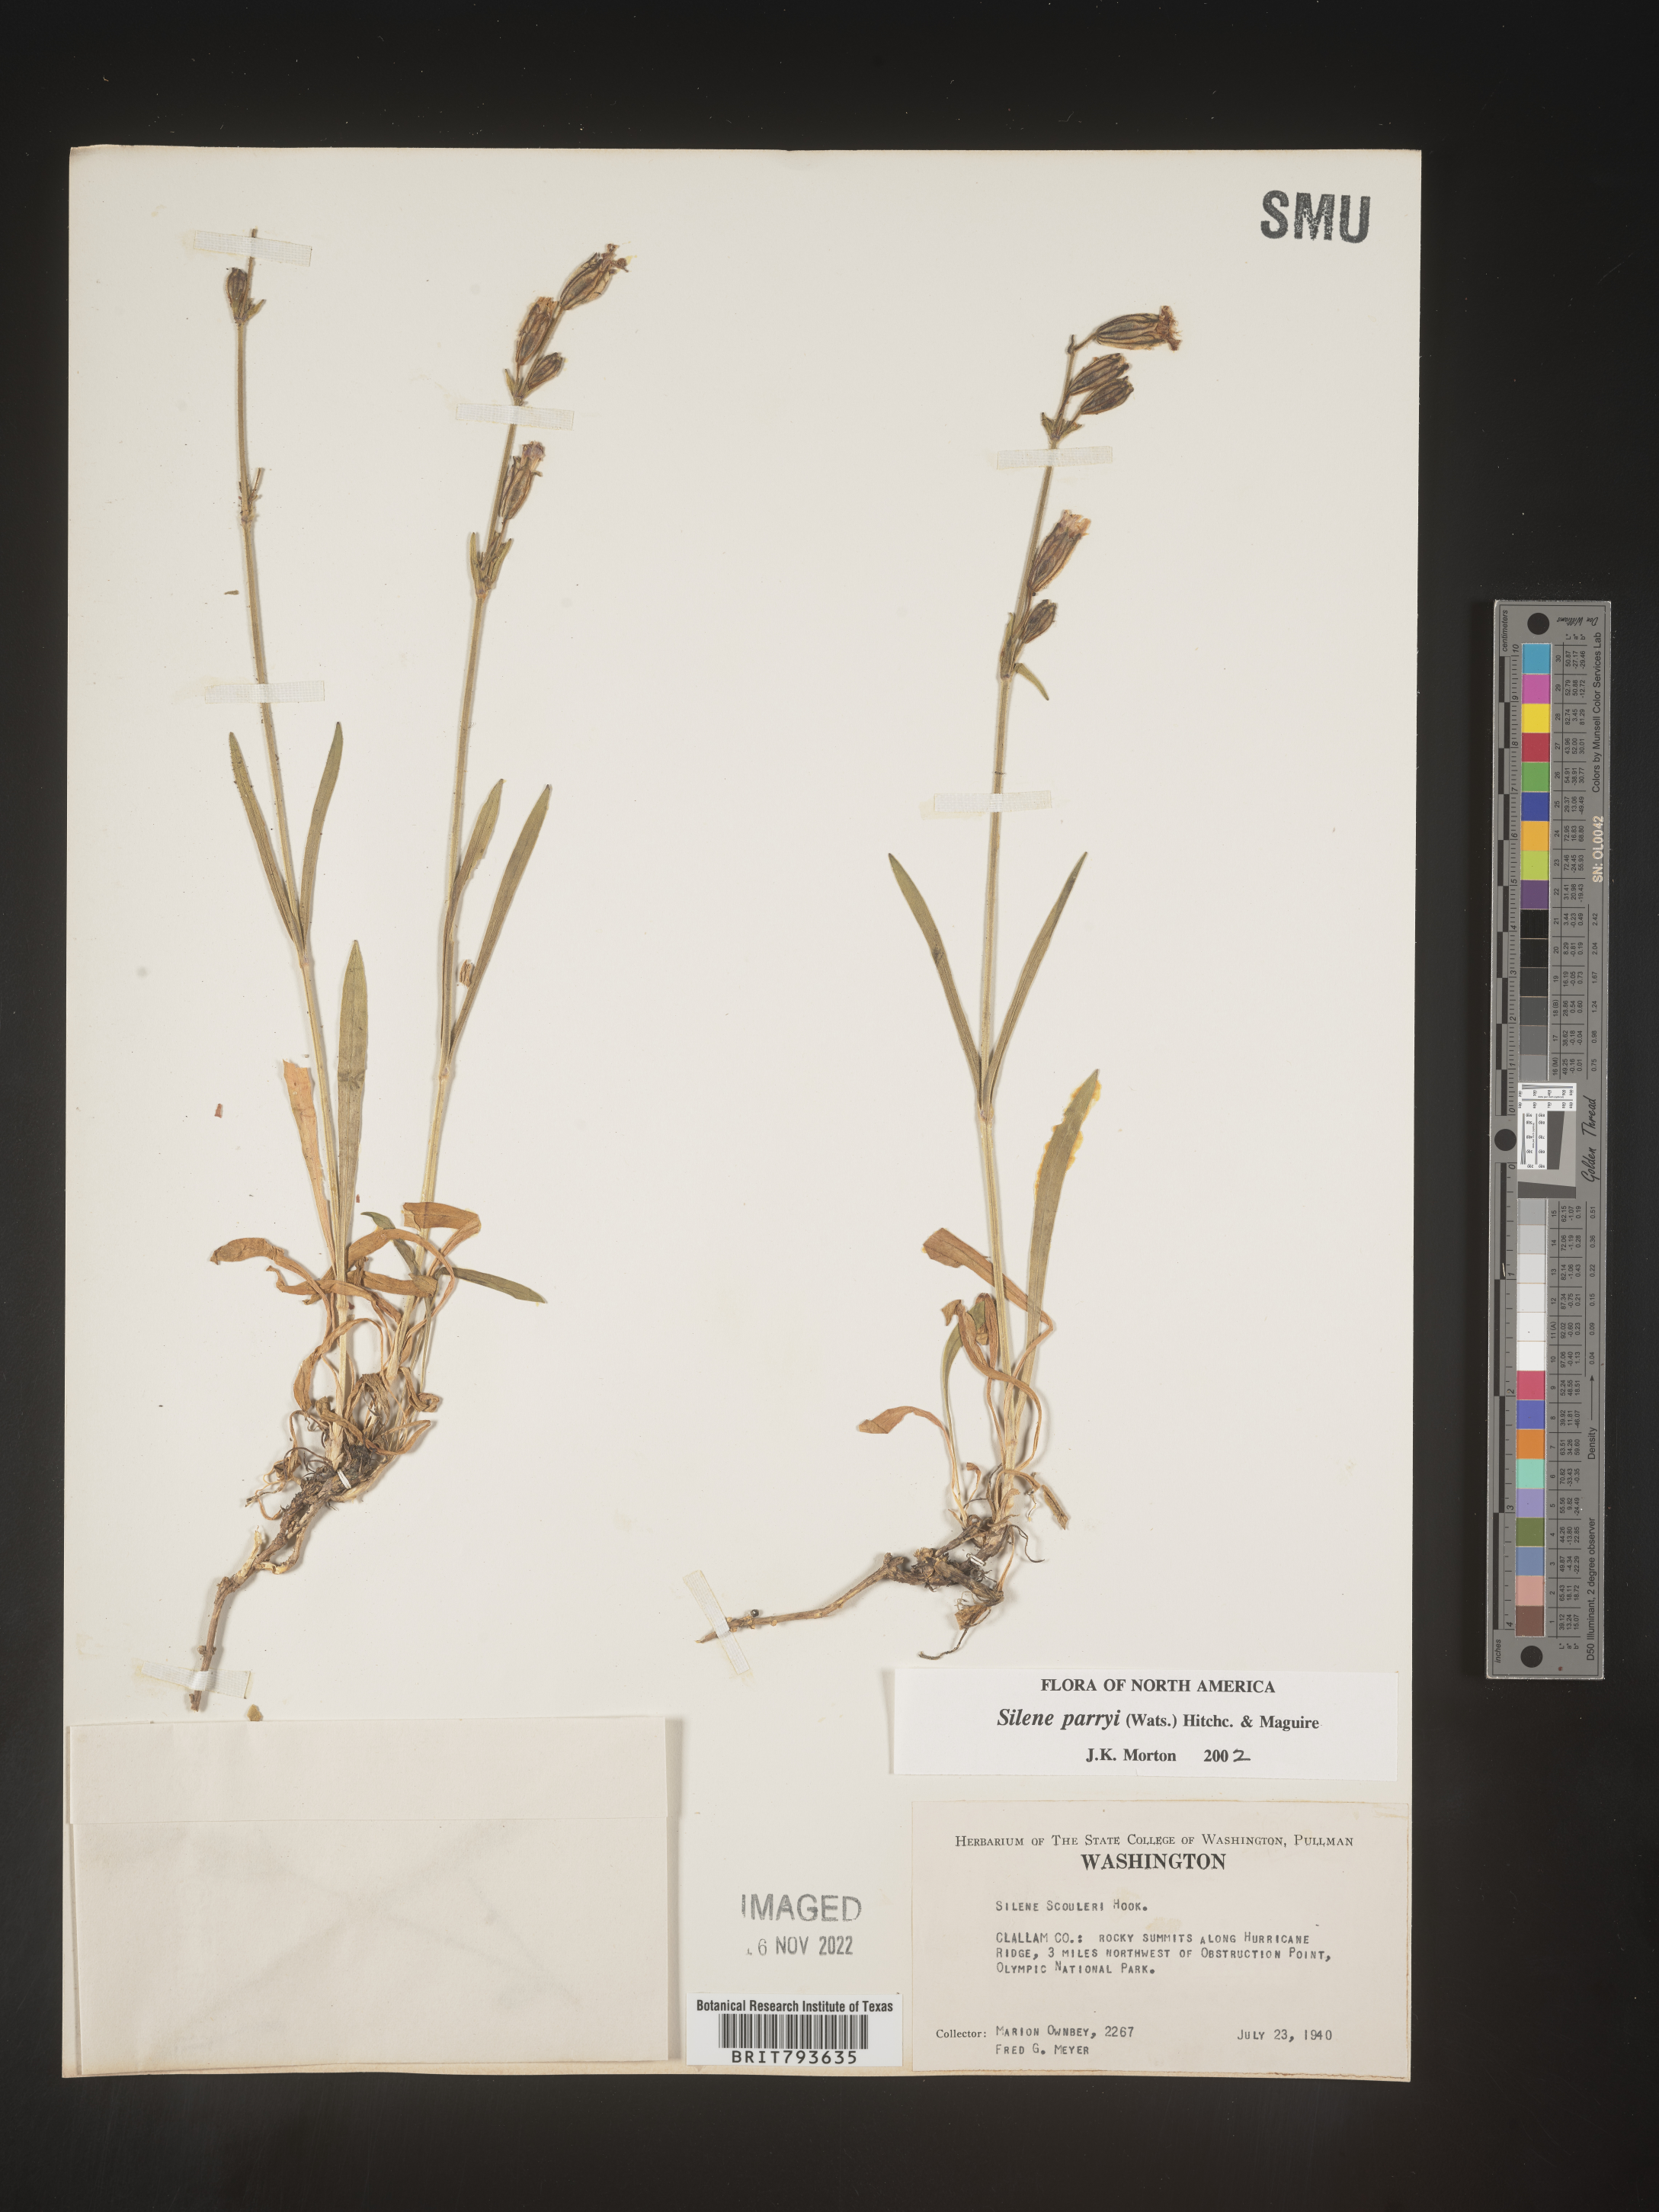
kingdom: Plantae
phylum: Tracheophyta
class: Magnoliopsida
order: Caryophyllales
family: Caryophyllaceae
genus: Silene
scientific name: Silene parryi
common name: Parry's campion
